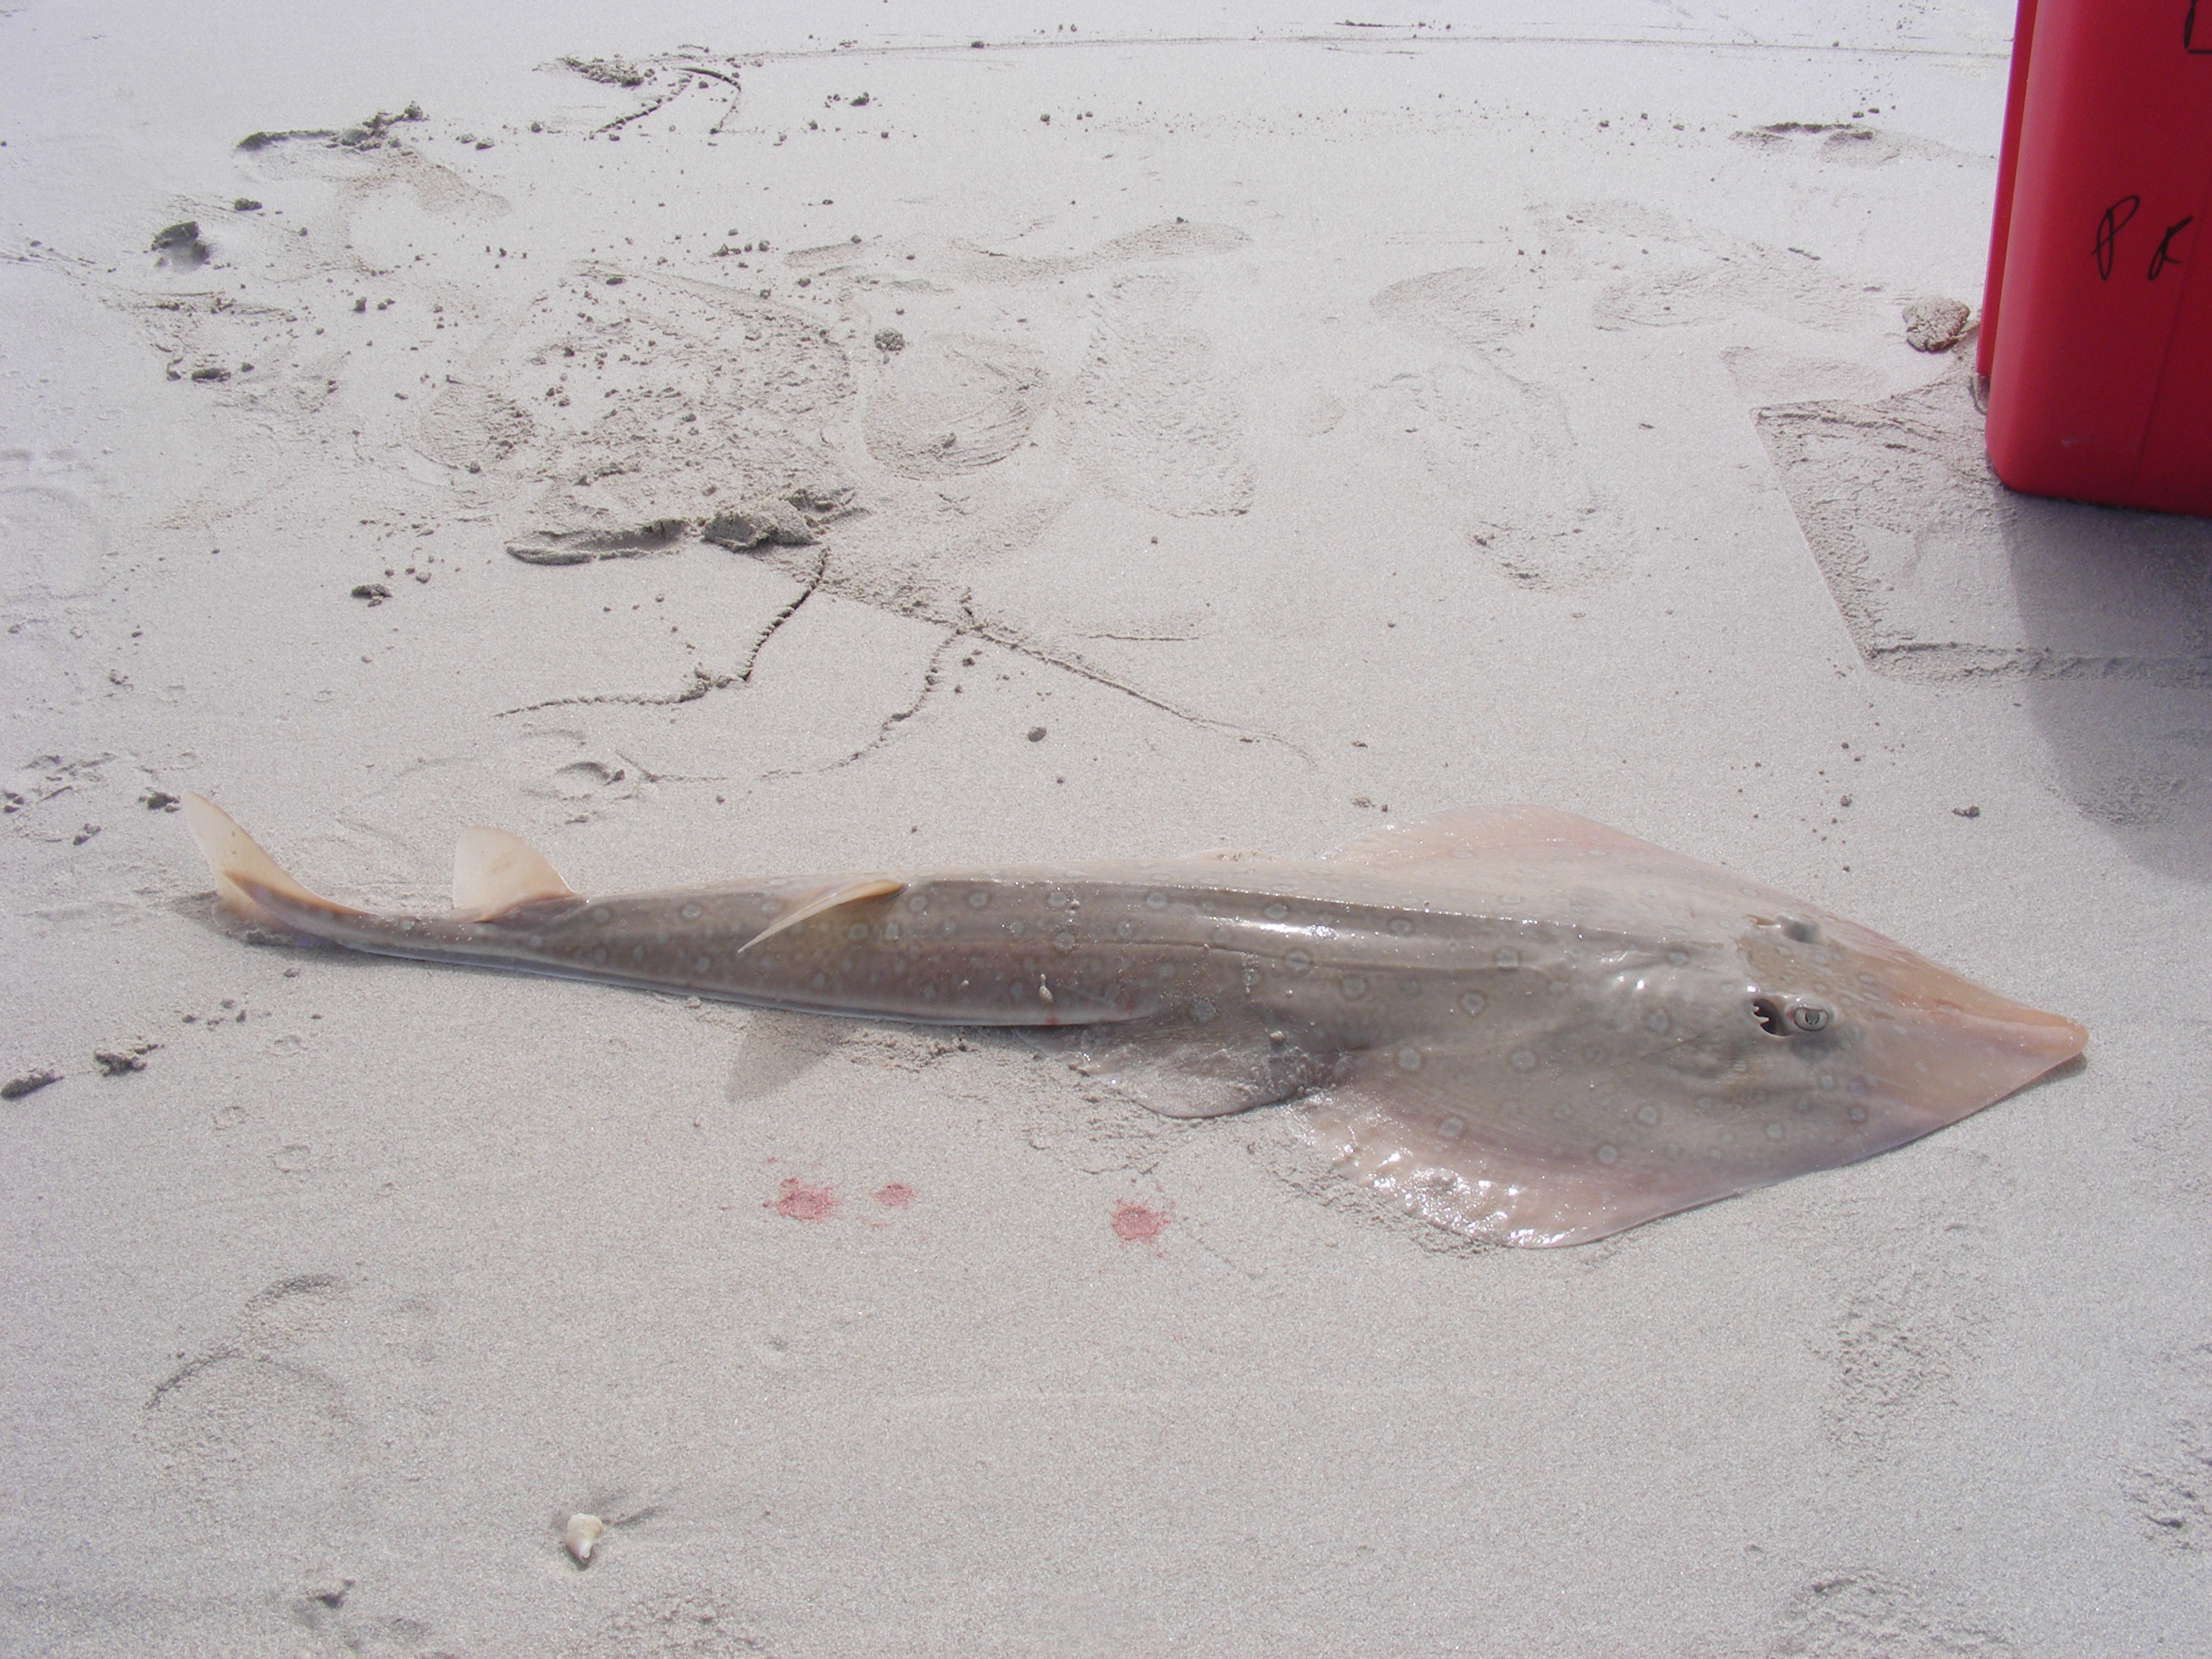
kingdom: Animalia
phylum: Chordata
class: Elasmobranchii
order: Rhinopristiformes
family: Rhinobatidae
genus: Acroteriobatus
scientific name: Acroteriobatus annulatus
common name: Lesser guitarfish
